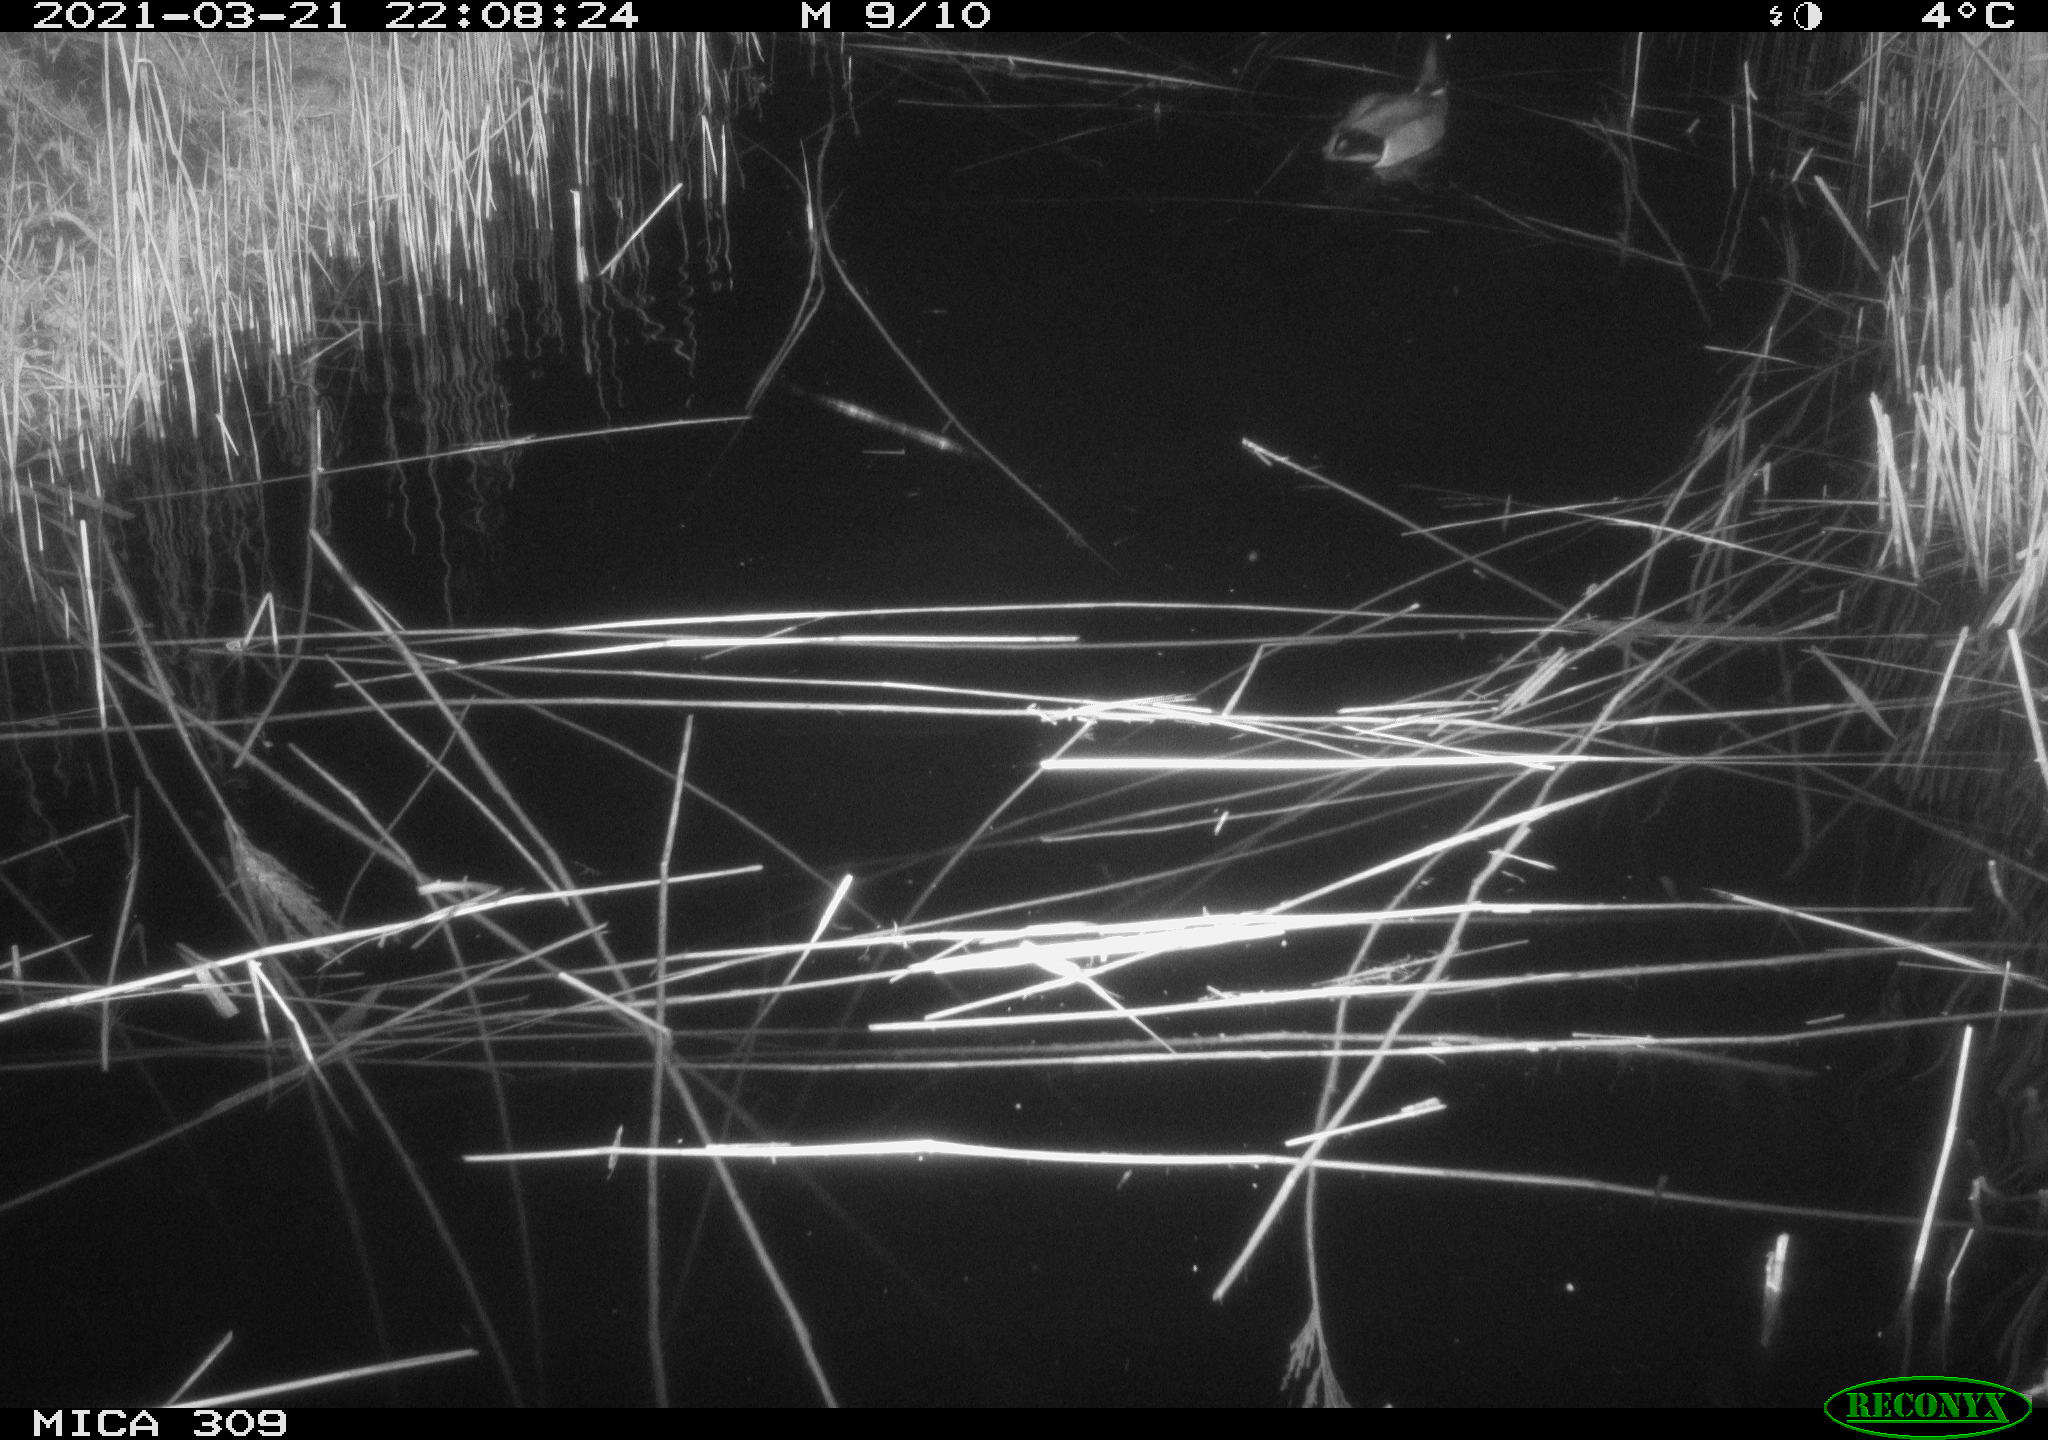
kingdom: Animalia
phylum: Chordata
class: Aves
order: Anseriformes
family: Anatidae
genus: Anas
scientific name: Anas platyrhynchos
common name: Mallard
